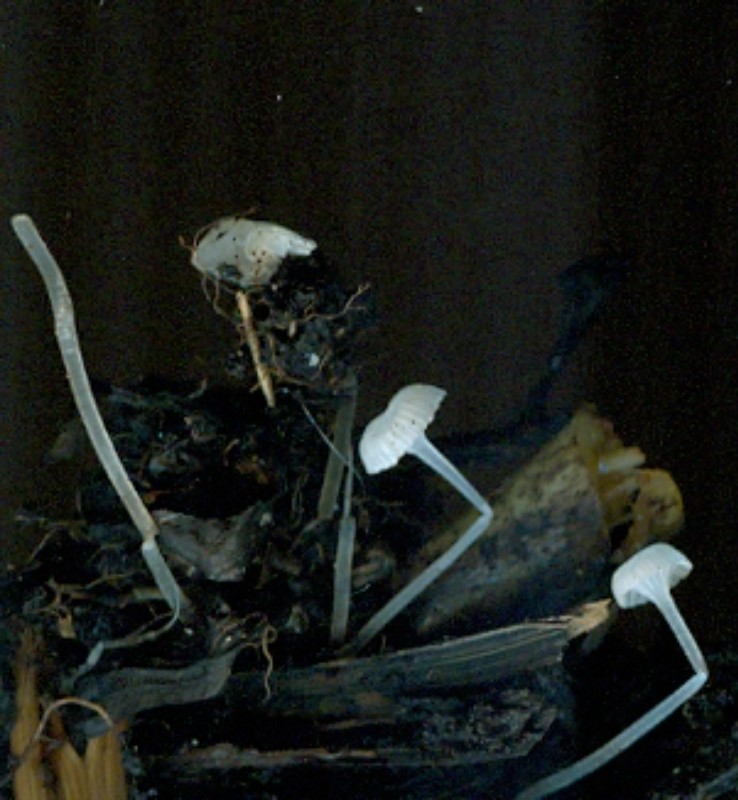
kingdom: Fungi
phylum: Basidiomycota
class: Agaricomycetes
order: Agaricales
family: Mycenaceae
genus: Hemimycena
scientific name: Hemimycena candida
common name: kulsukker-huesvamp
